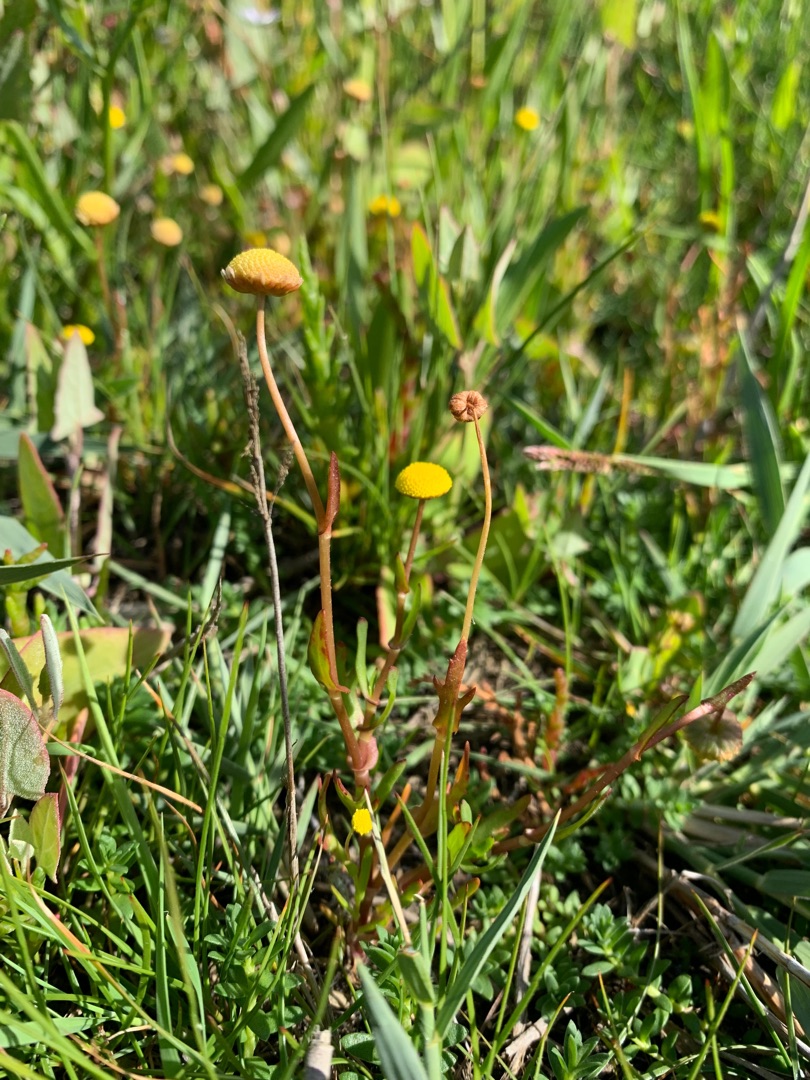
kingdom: Plantae
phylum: Tracheophyta
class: Magnoliopsida
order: Asterales
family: Asteraceae
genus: Cotula
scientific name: Cotula coronopifolia
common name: Firkløft
